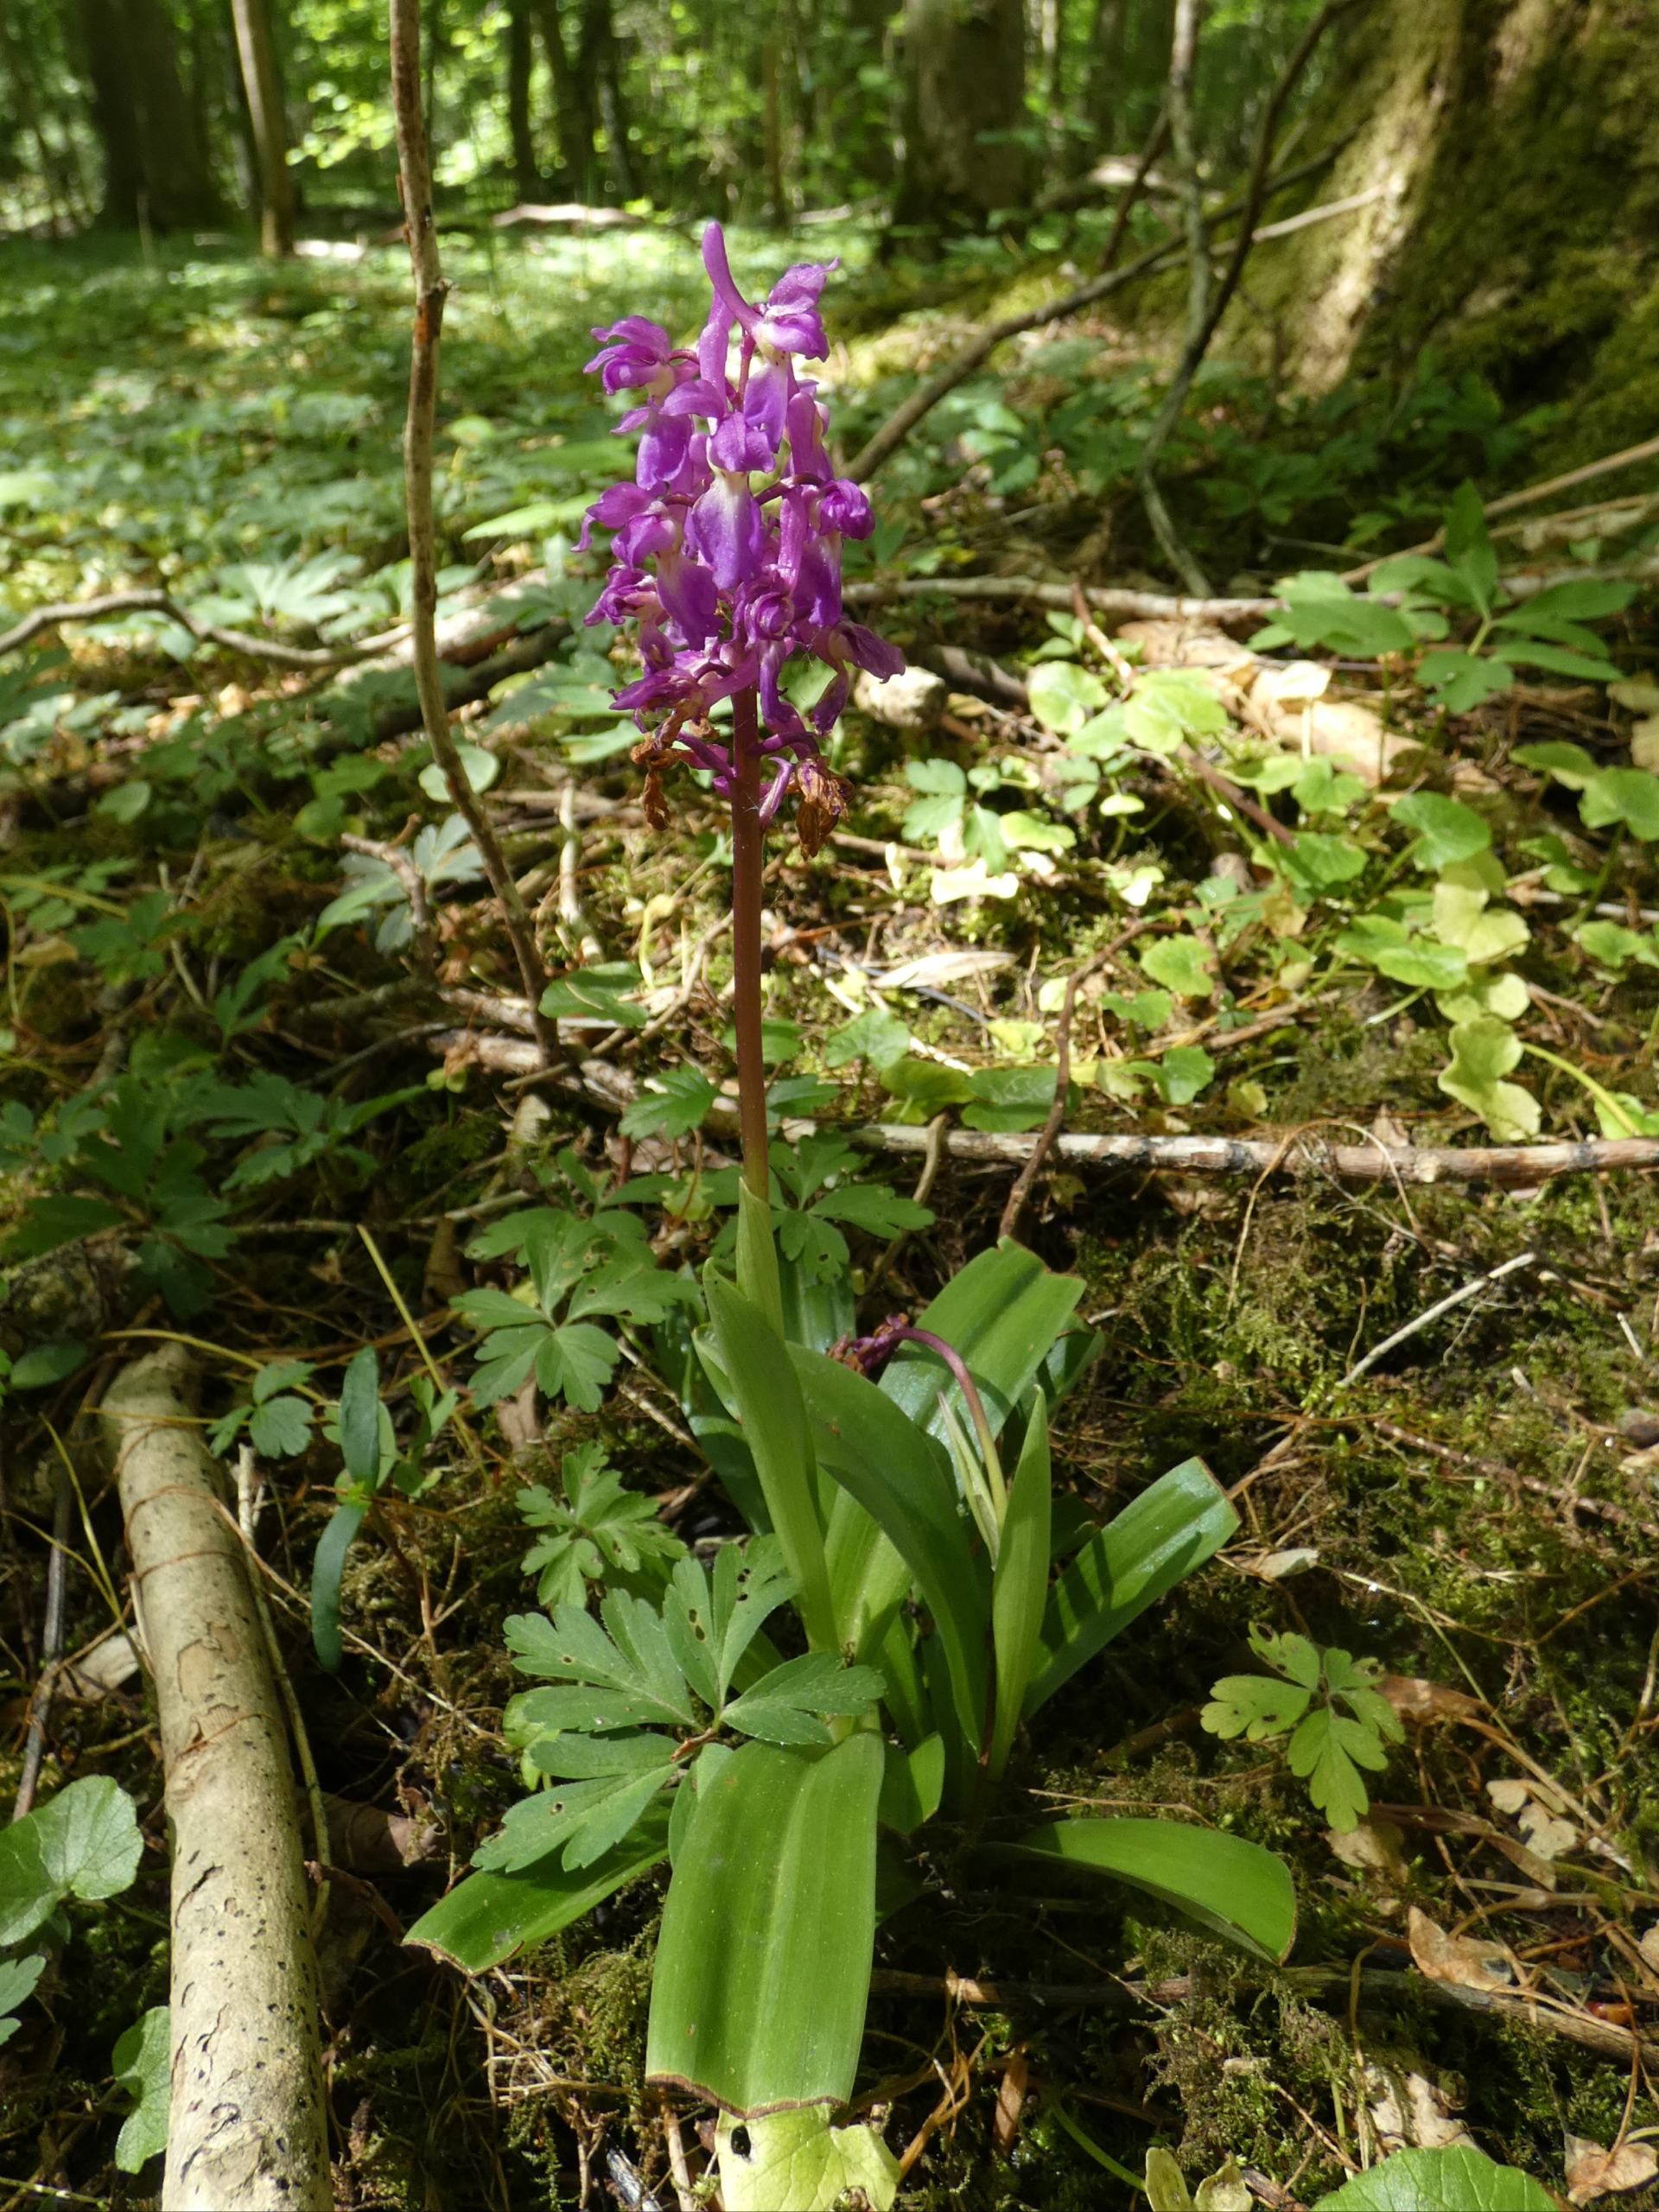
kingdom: Plantae
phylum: Tracheophyta
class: Liliopsida
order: Asparagales
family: Orchidaceae
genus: Orchis
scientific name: Orchis mascula
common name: Tyndakset gøgeurt
